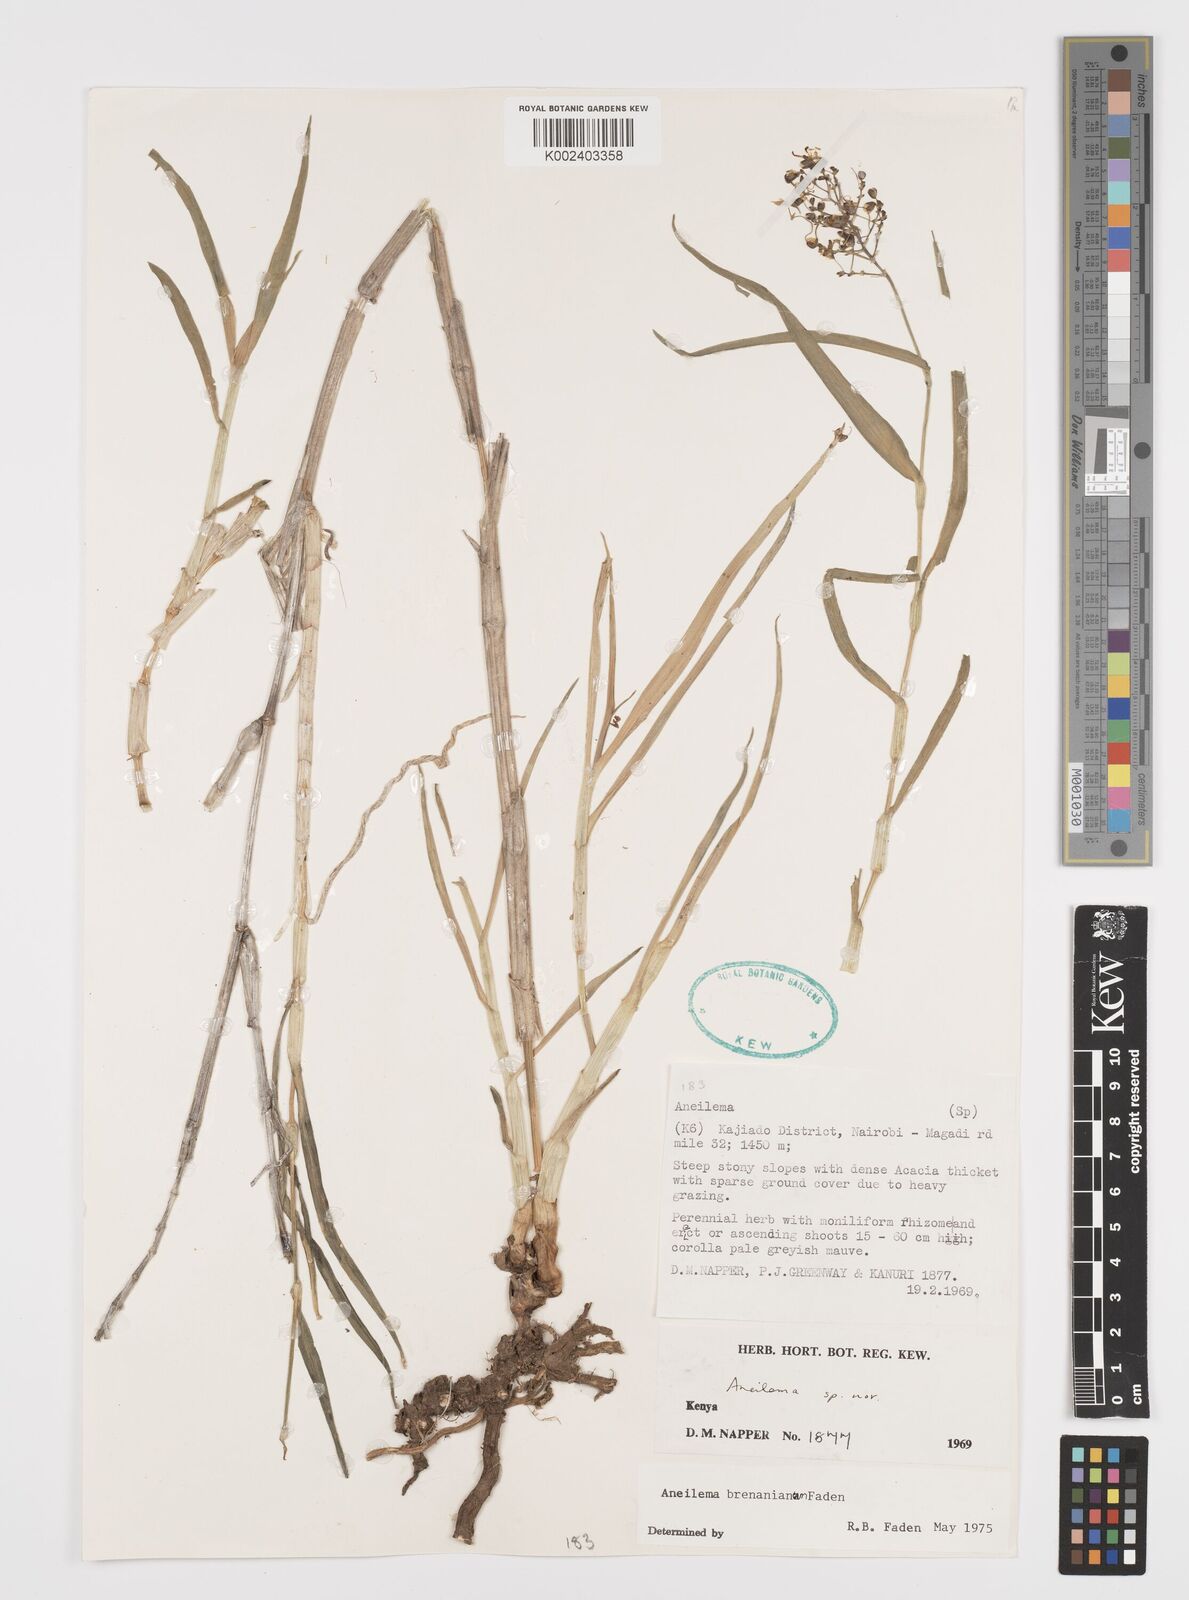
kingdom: Plantae
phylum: Tracheophyta
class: Liliopsida
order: Commelinales
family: Commelinaceae
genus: Aneilema
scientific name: Aneilema brenanianum
